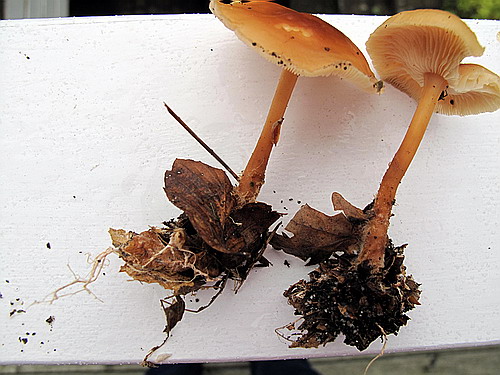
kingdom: Fungi
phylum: Basidiomycota
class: Agaricomycetes
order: Agaricales
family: Omphalotaceae
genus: Gymnopus
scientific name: Gymnopus dryophilus
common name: løv-fladhat
